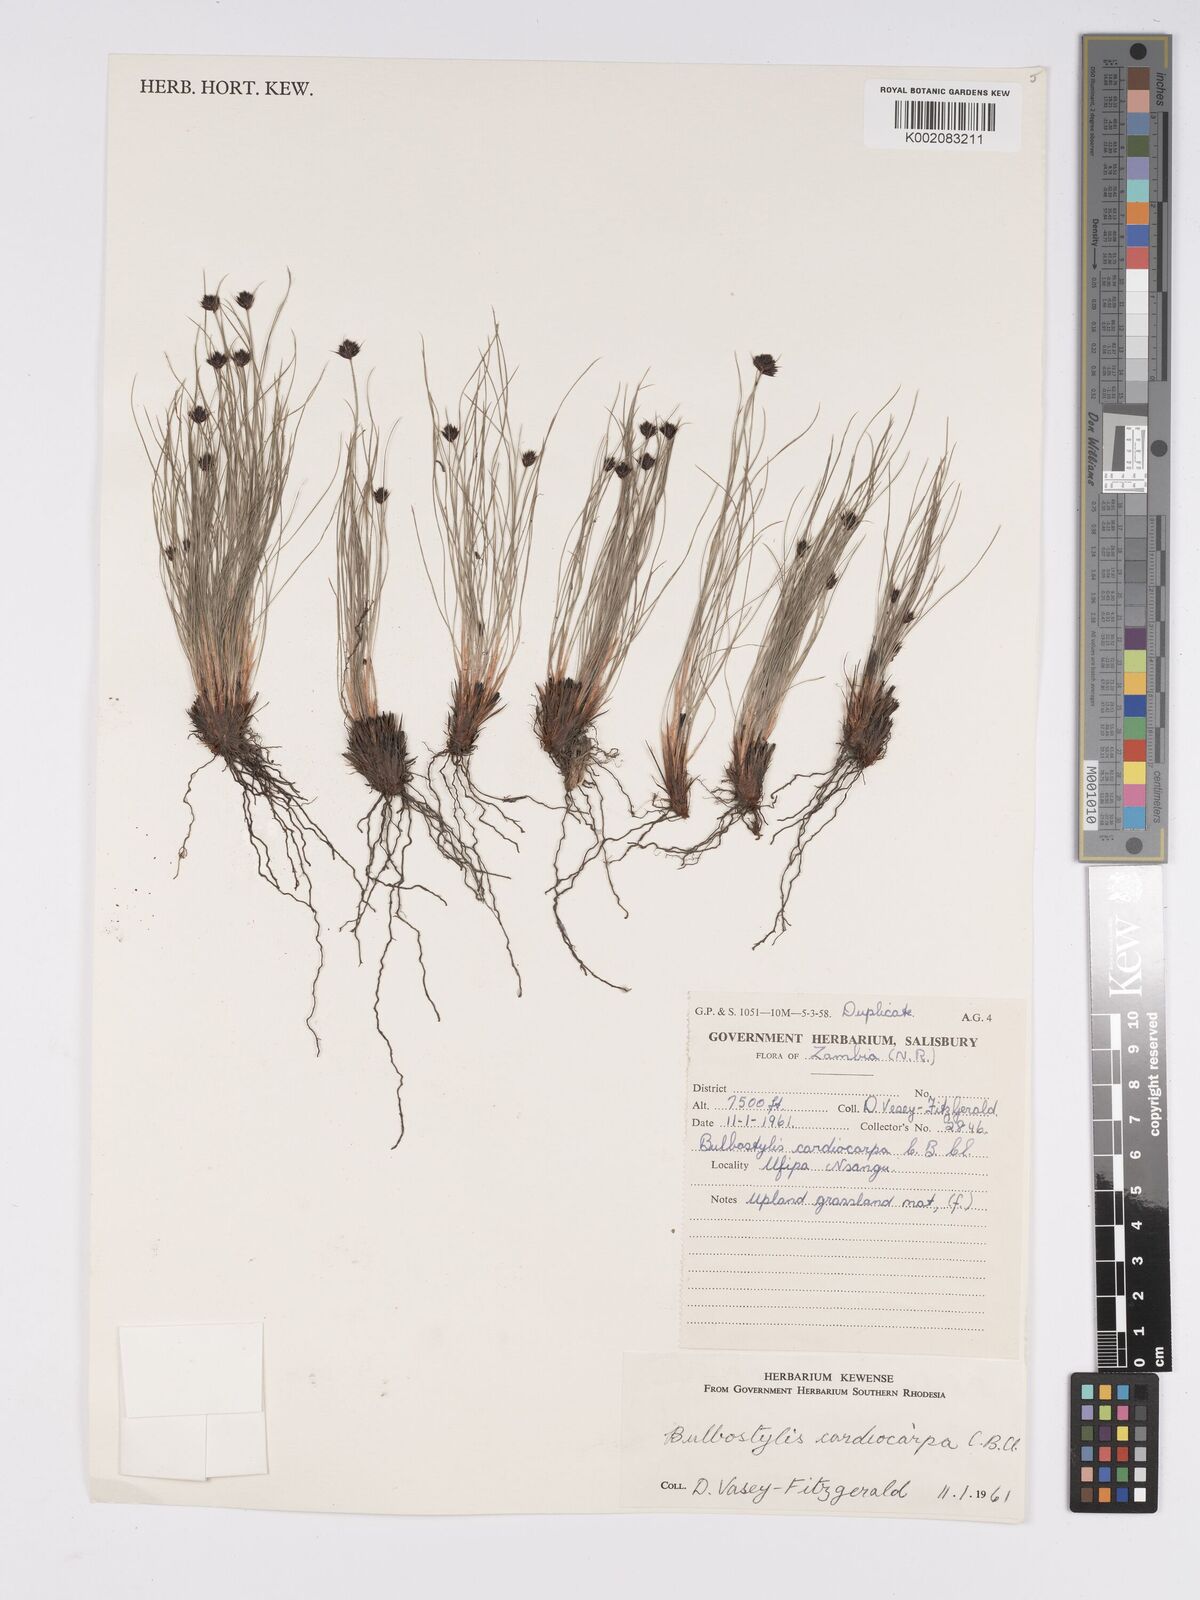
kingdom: Plantae
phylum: Tracheophyta
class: Liliopsida
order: Poales
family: Cyperaceae
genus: Bulbostylis
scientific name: Bulbostylis filamentosa
